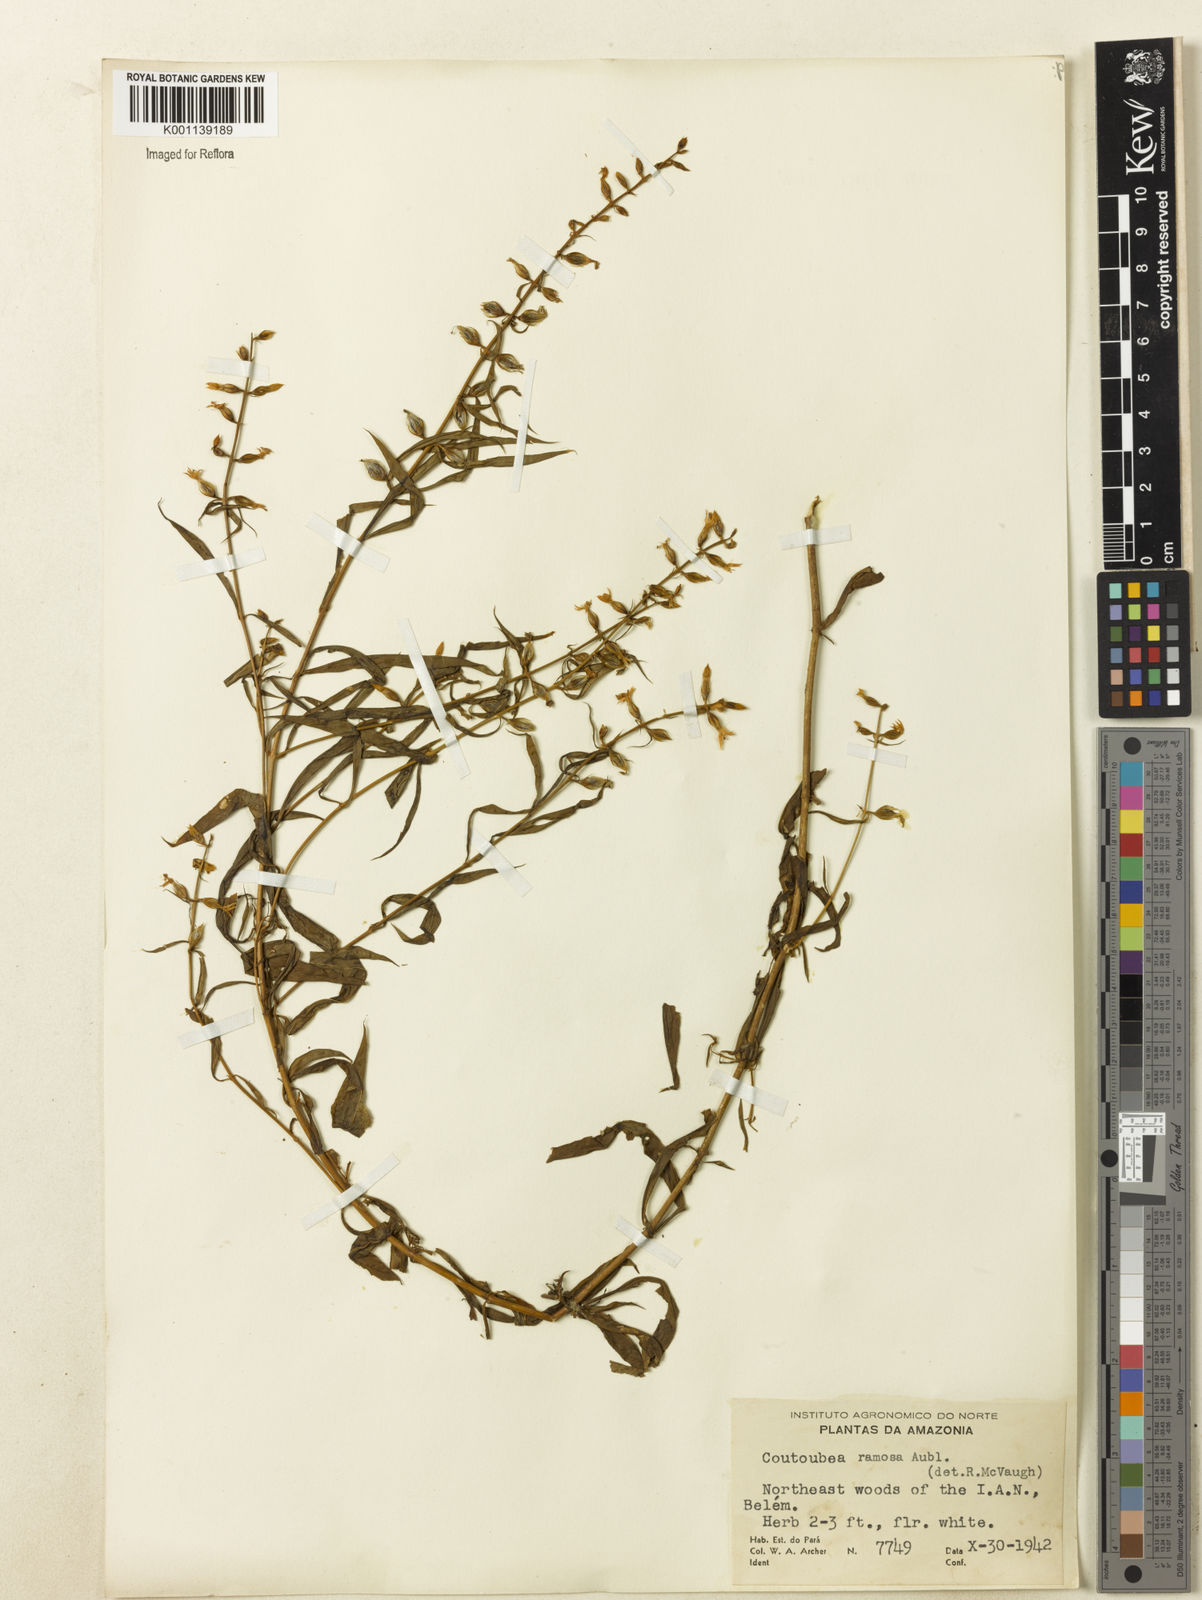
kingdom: Plantae
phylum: Tracheophyta
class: Magnoliopsida
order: Gentianales
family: Gentianaceae
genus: Coutoubea
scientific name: Coutoubea ramosa
